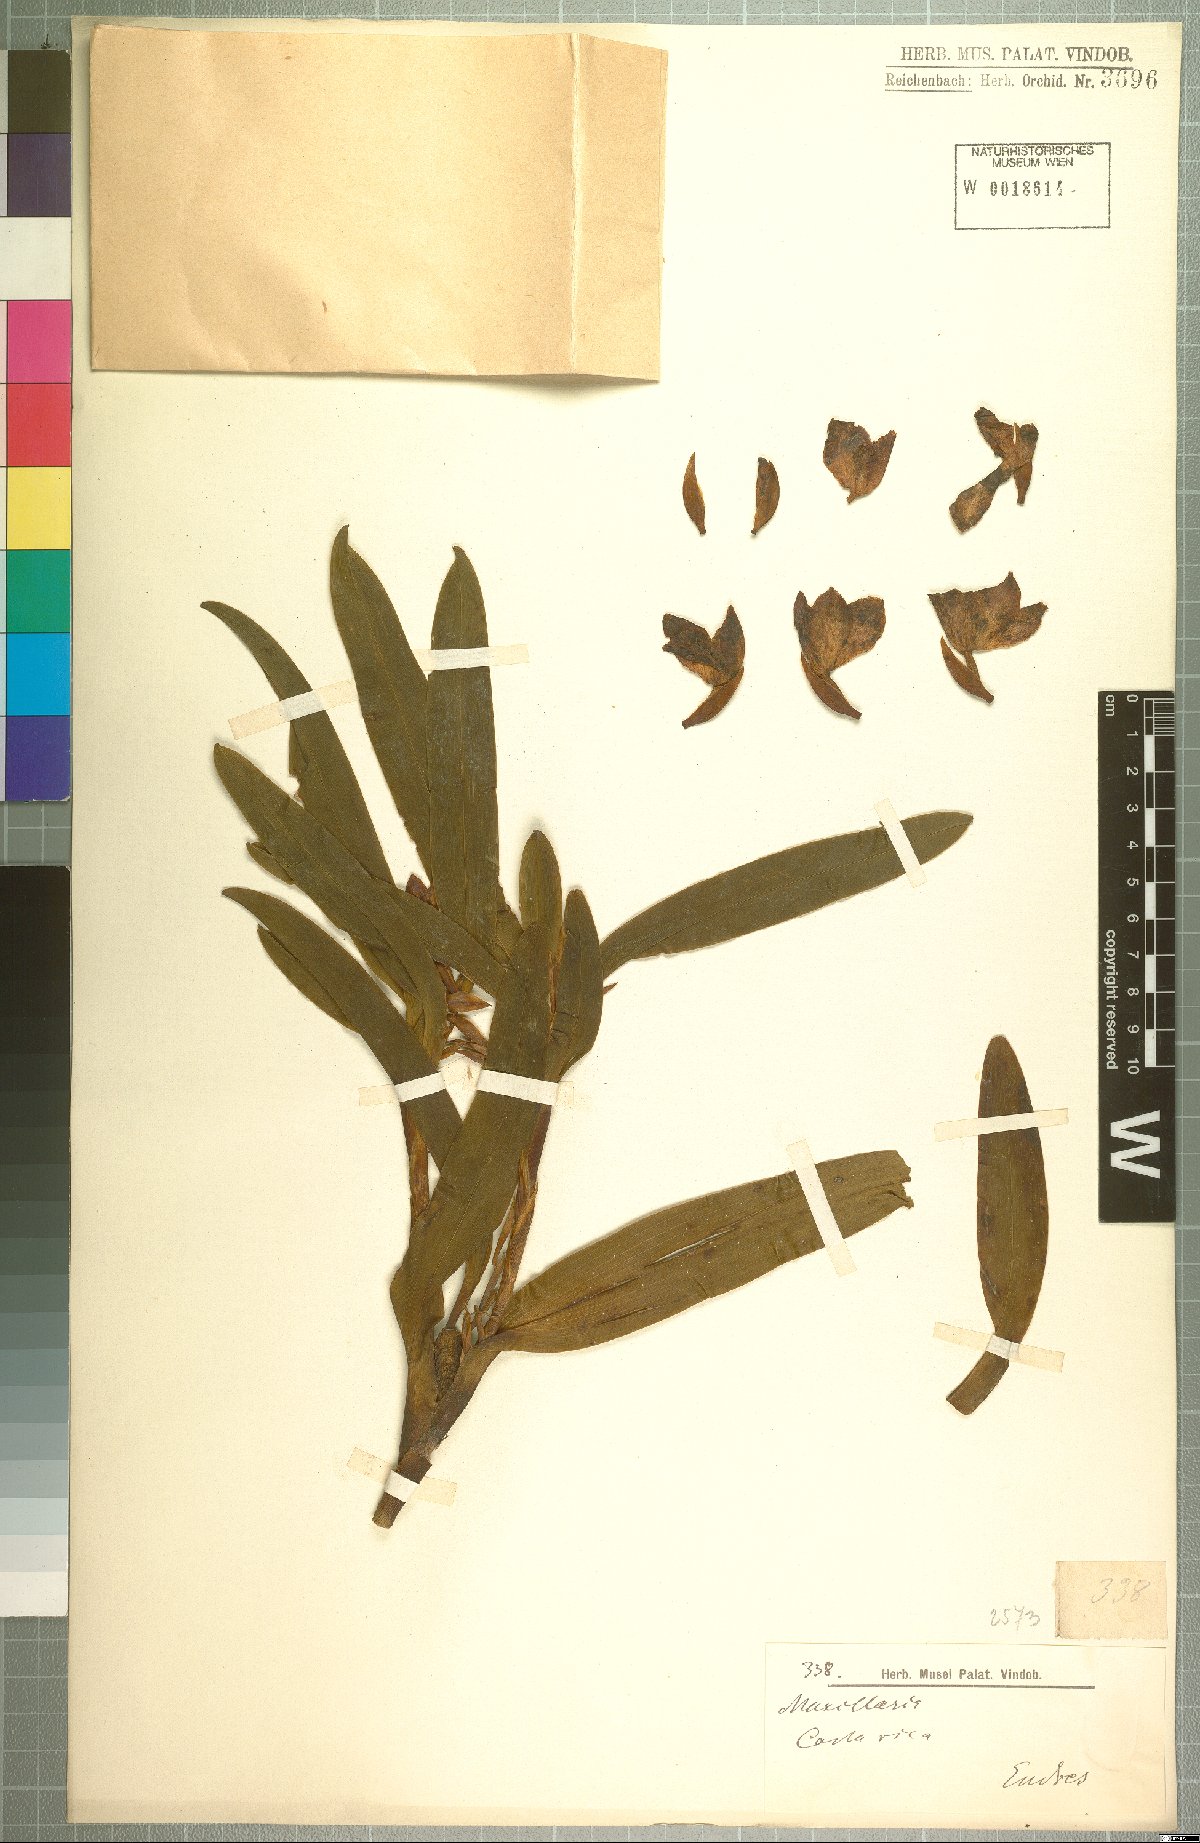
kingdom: Plantae
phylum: Tracheophyta
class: Liliopsida
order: Asparagales
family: Orchidaceae
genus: Maxillaria
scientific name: Maxillaria
